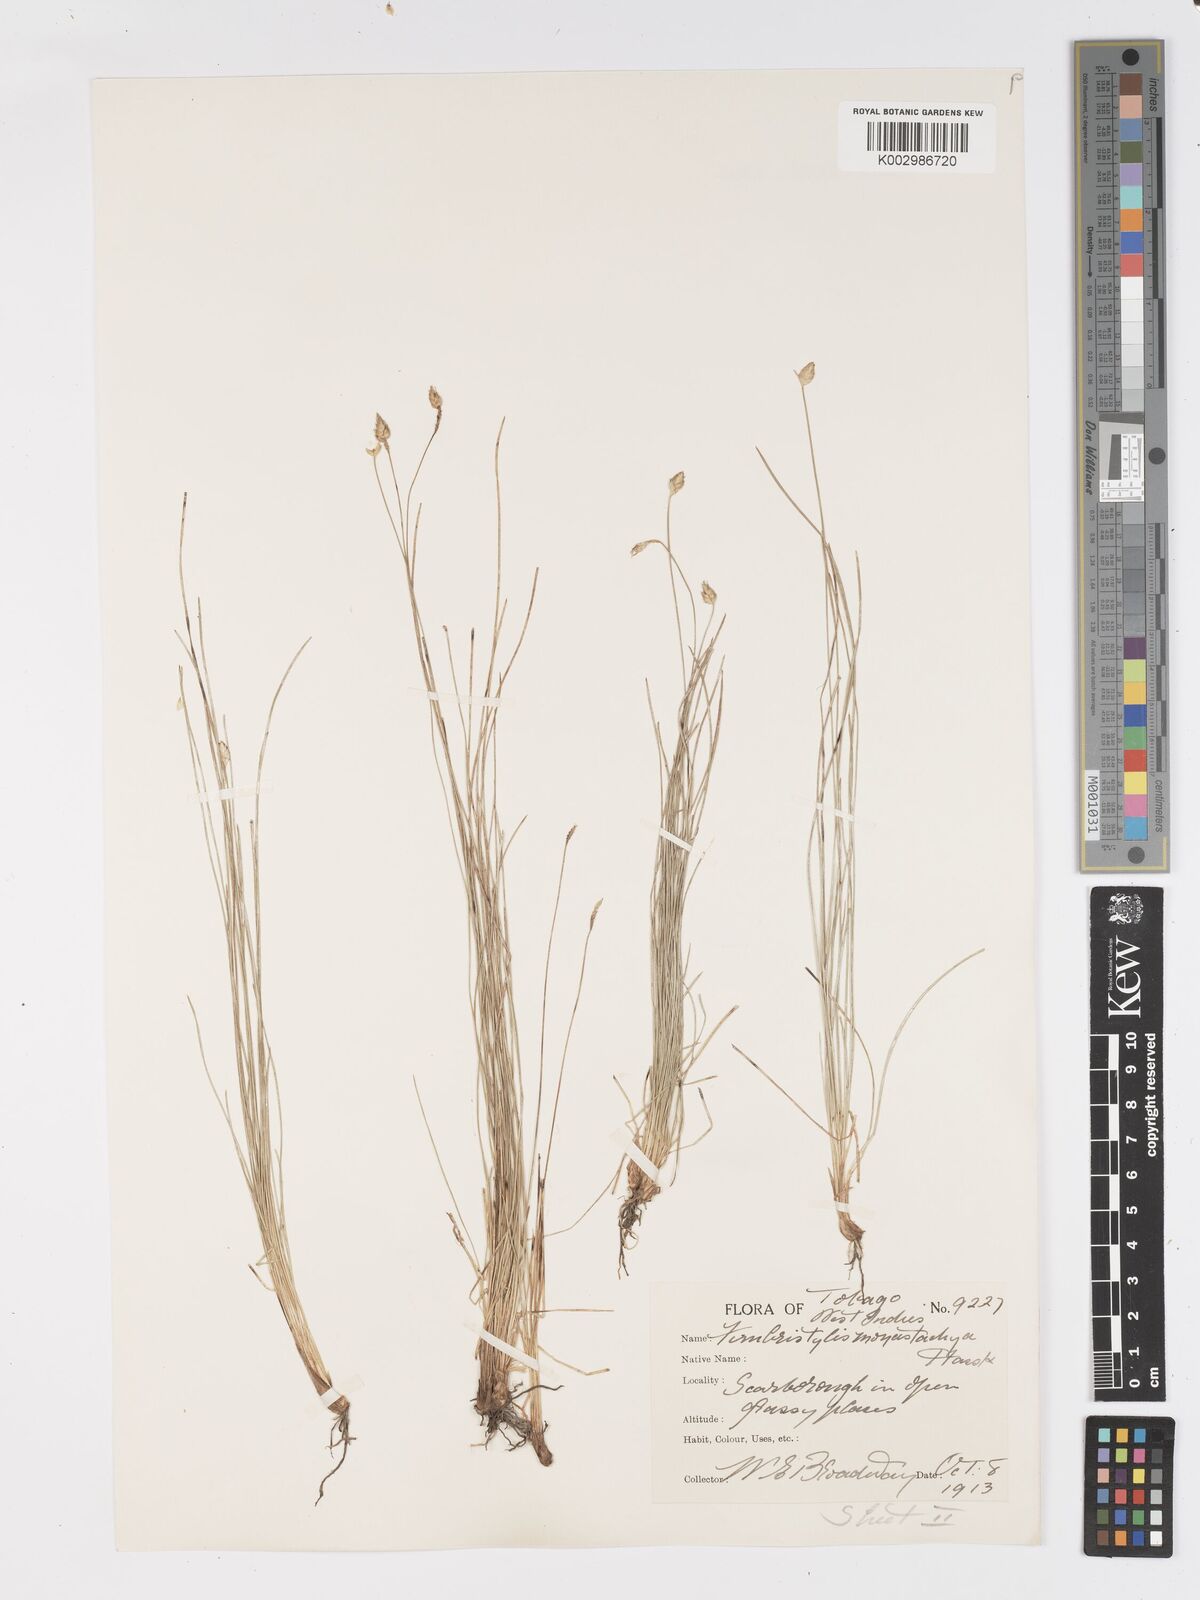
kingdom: Plantae
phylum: Tracheophyta
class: Liliopsida
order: Poales
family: Cyperaceae
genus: Fimbristylis
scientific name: Fimbristylis
